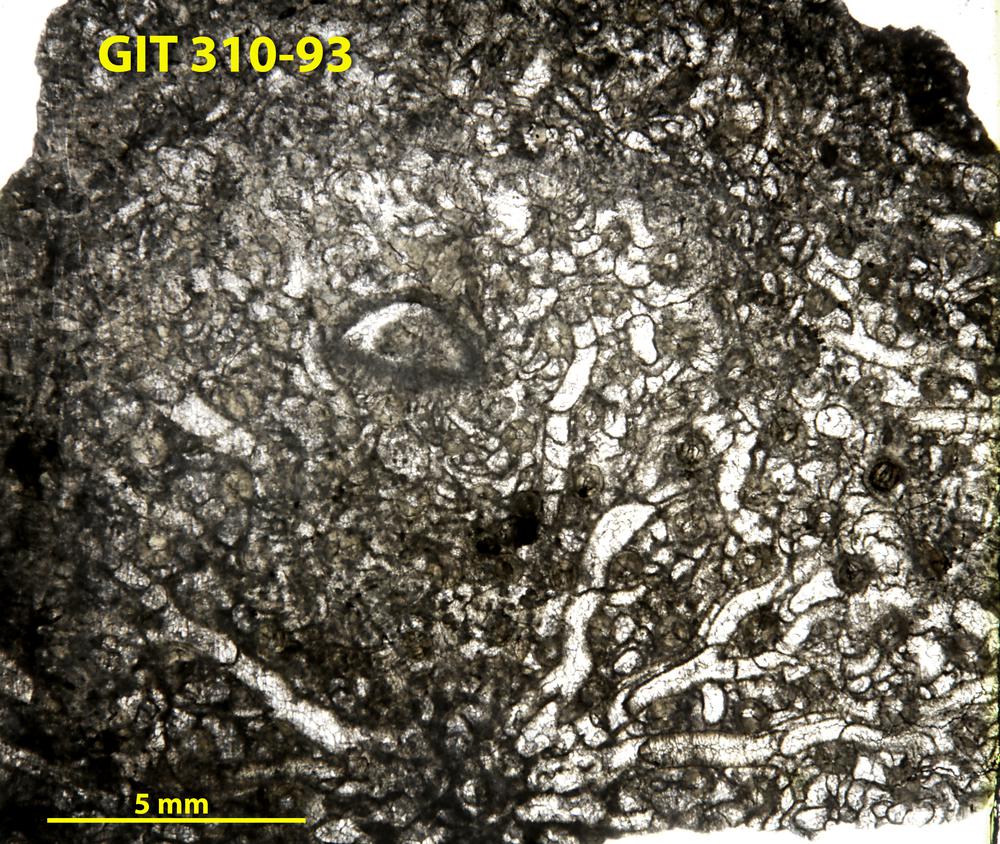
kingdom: Animalia
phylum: Porifera
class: Hexactinellida
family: Cliefdenellidae
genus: Cliefdenella
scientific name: Cliefdenella
